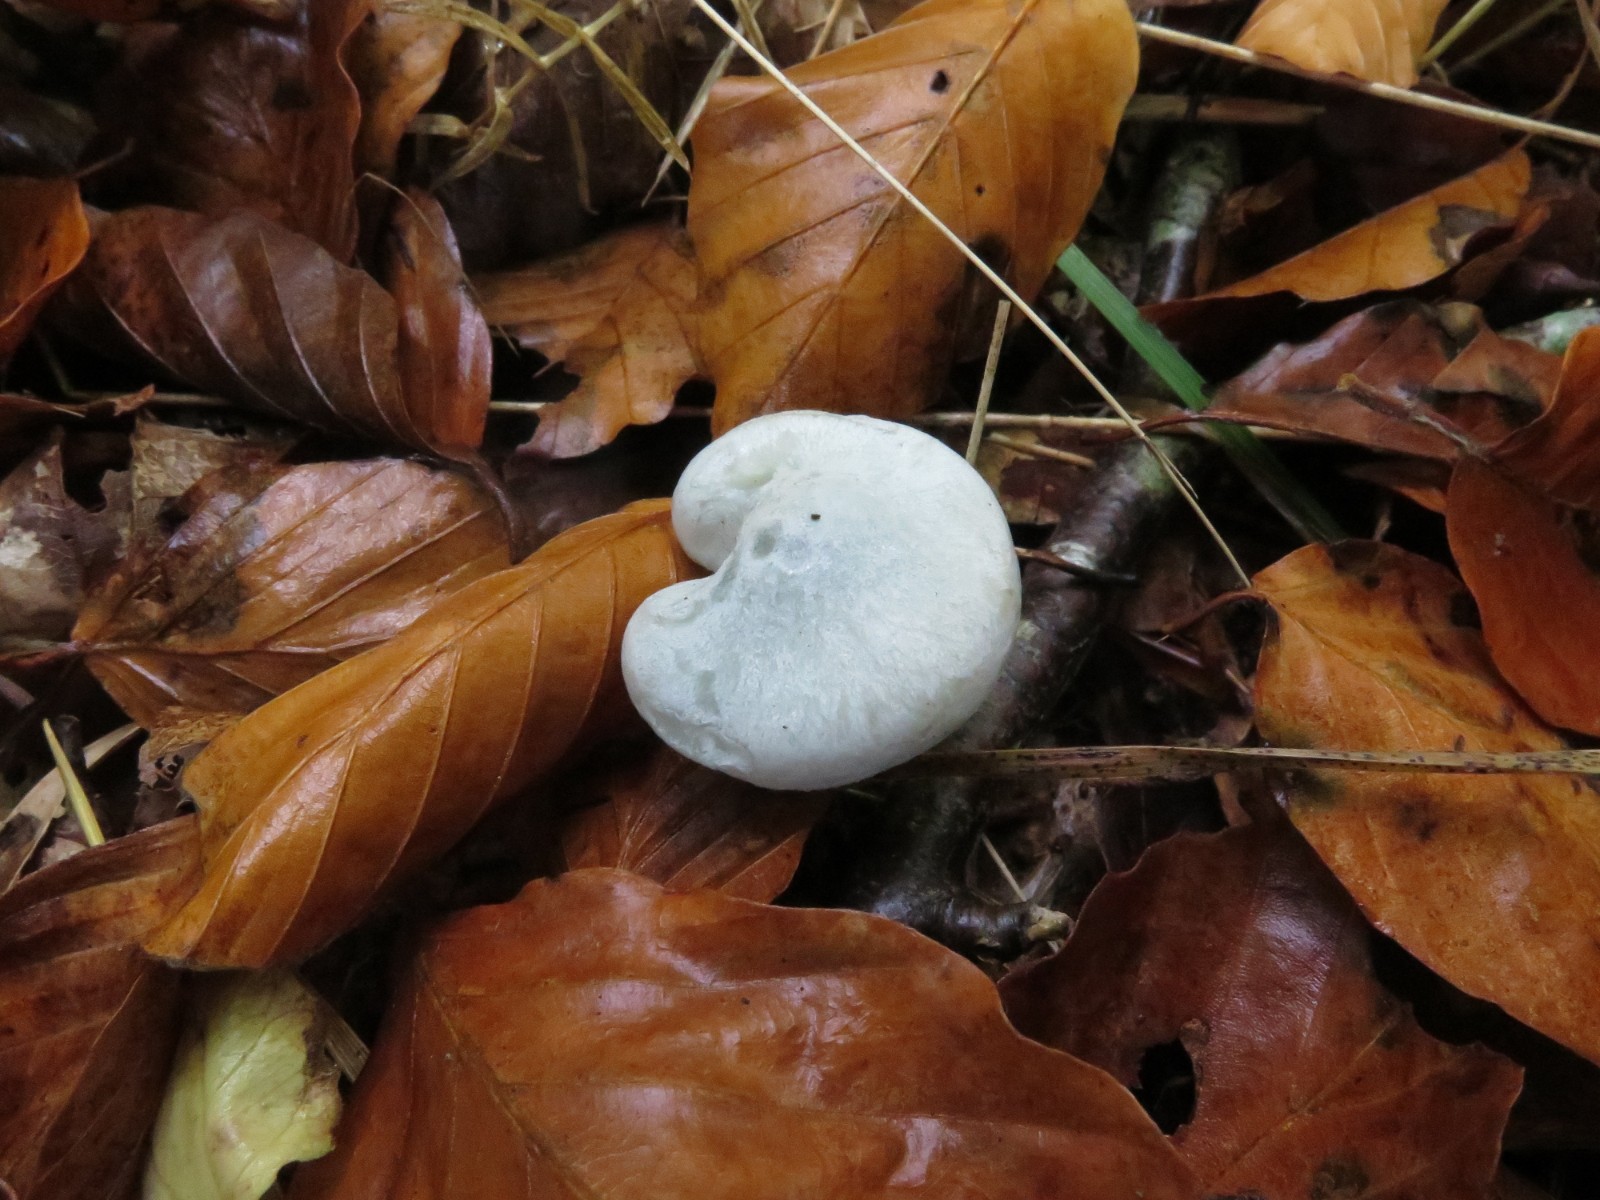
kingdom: Fungi
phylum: Basidiomycota
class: Agaricomycetes
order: Agaricales
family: Tricholomataceae
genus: Clitocybe
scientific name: Clitocybe odora
